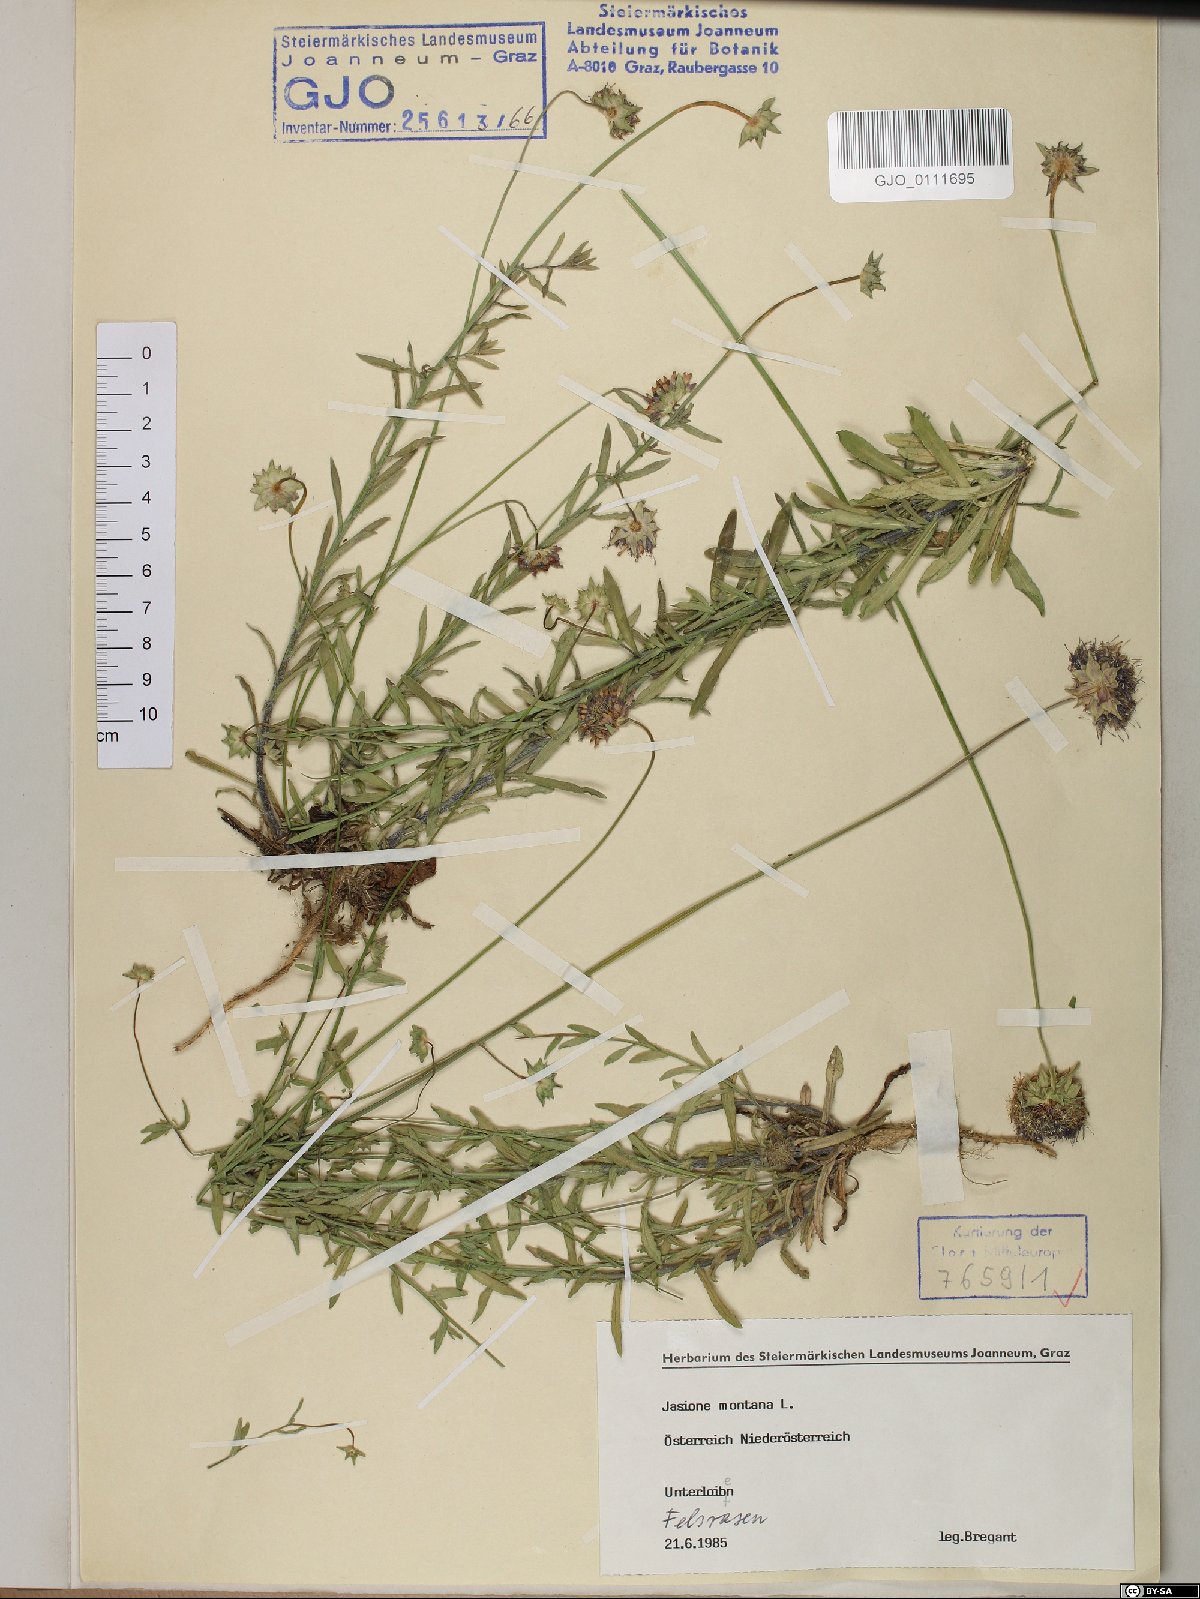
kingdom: Plantae
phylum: Tracheophyta
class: Magnoliopsida
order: Asterales
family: Campanulaceae
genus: Jasione
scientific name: Jasione montana
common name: Sheep's-bit
